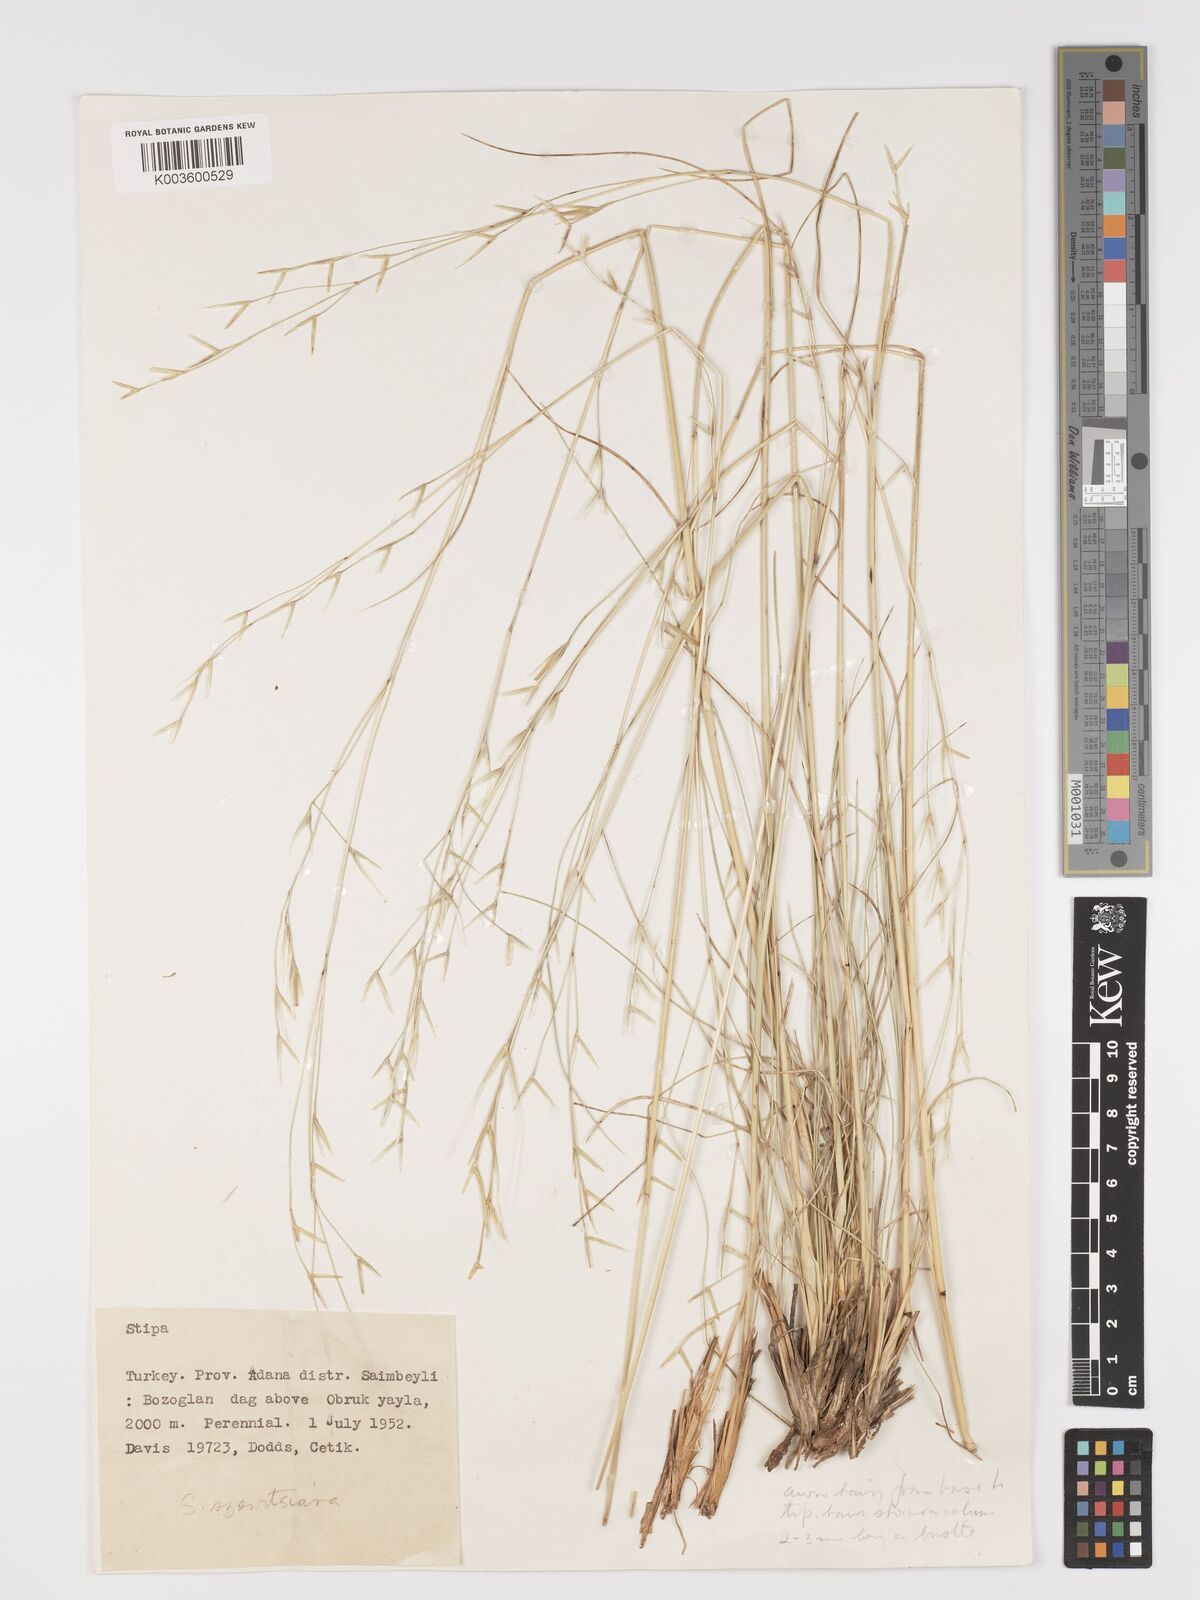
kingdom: Plantae
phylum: Tracheophyta
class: Liliopsida
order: Poales
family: Poaceae
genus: Stipa
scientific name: Stipa barbata
